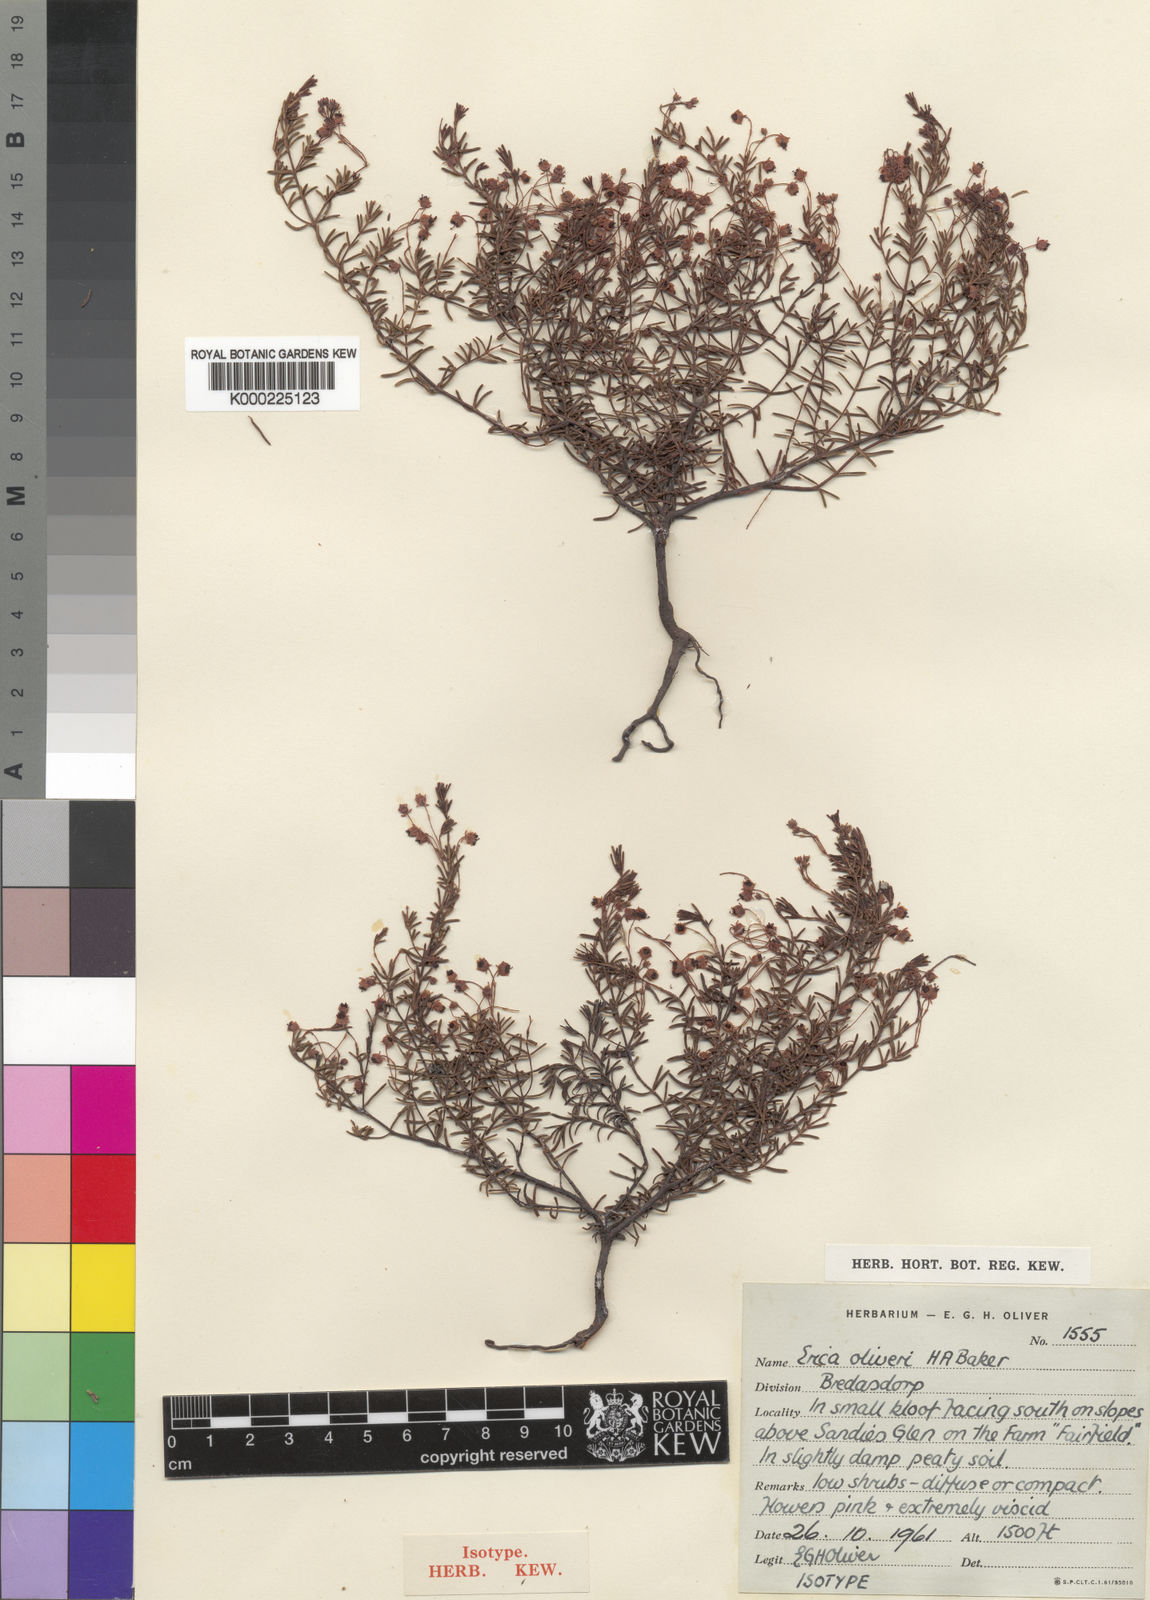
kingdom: Plantae
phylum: Tracheophyta
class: Magnoliopsida
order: Ericales
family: Ericaceae
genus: Erica
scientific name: Erica oliveri
